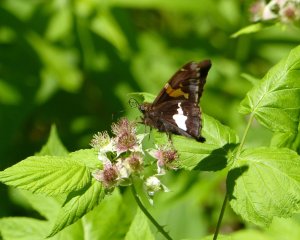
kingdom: Animalia
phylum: Arthropoda
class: Insecta
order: Lepidoptera
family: Hesperiidae
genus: Epargyreus
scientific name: Epargyreus clarus
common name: Silver-spotted Skipper
